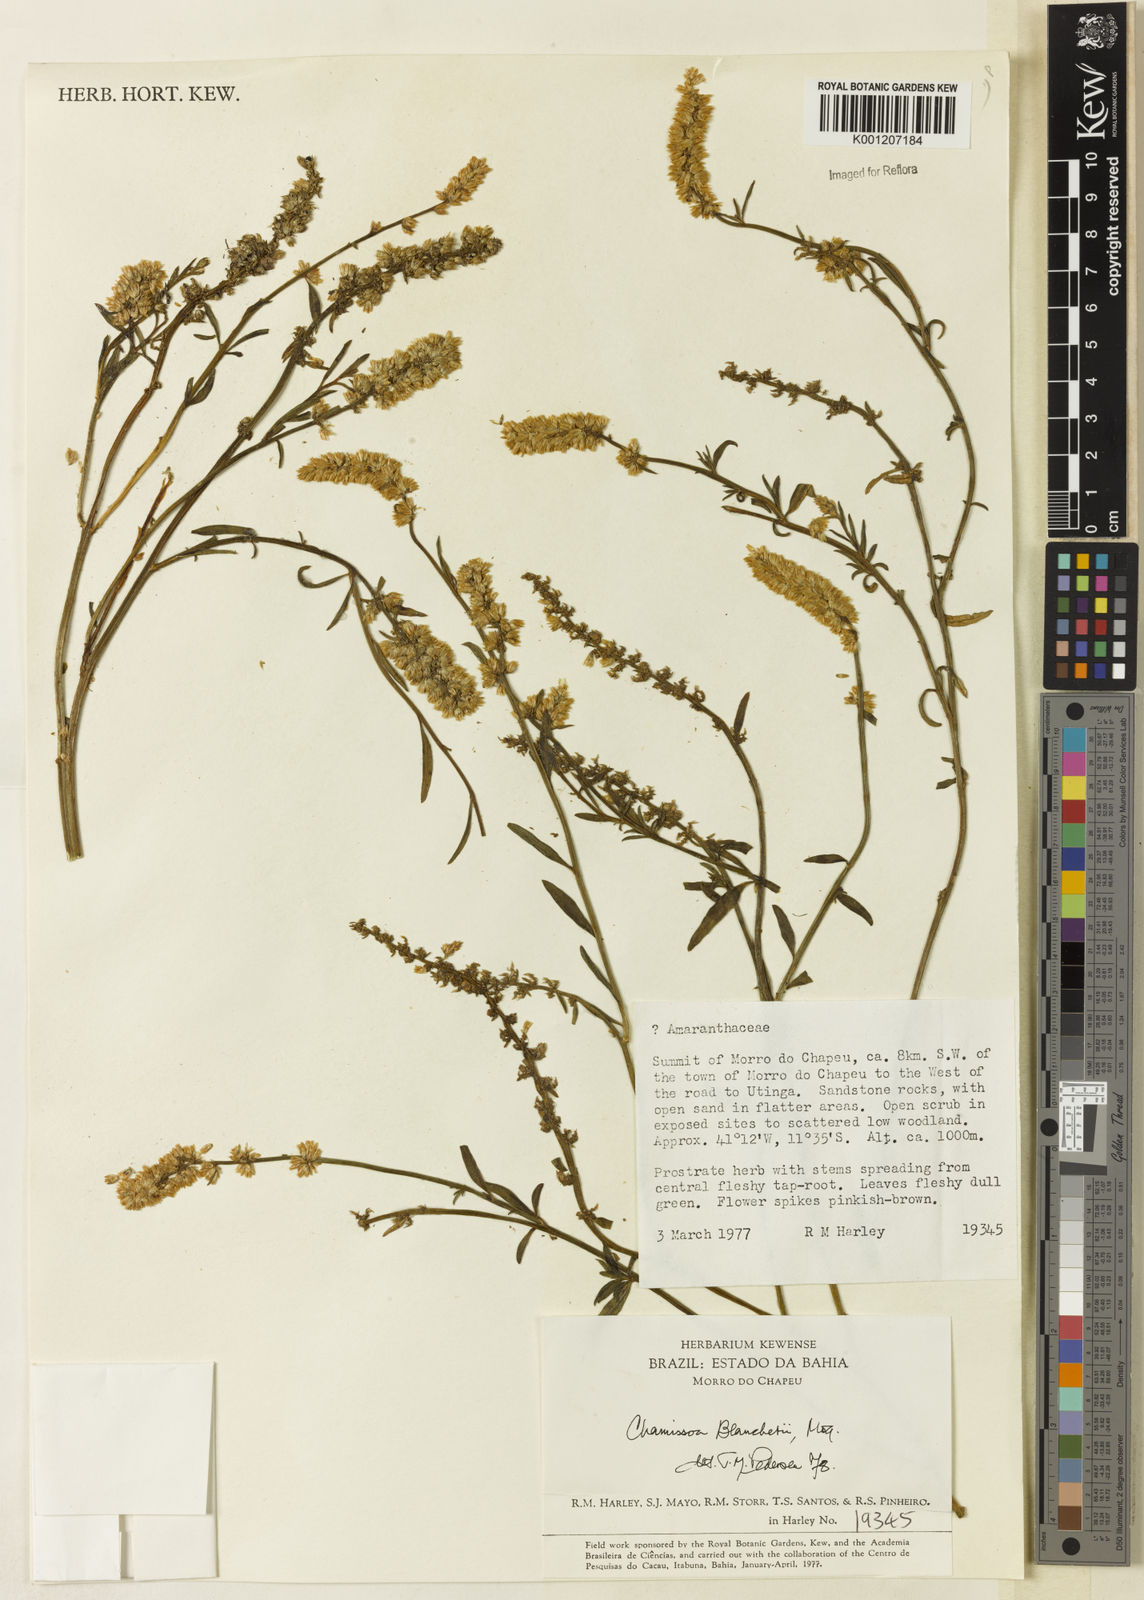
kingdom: Plantae
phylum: Tracheophyta
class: Magnoliopsida
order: Caryophyllales
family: Amaranthaceae
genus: Chamissoa
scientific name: Chamissoa acuminata
